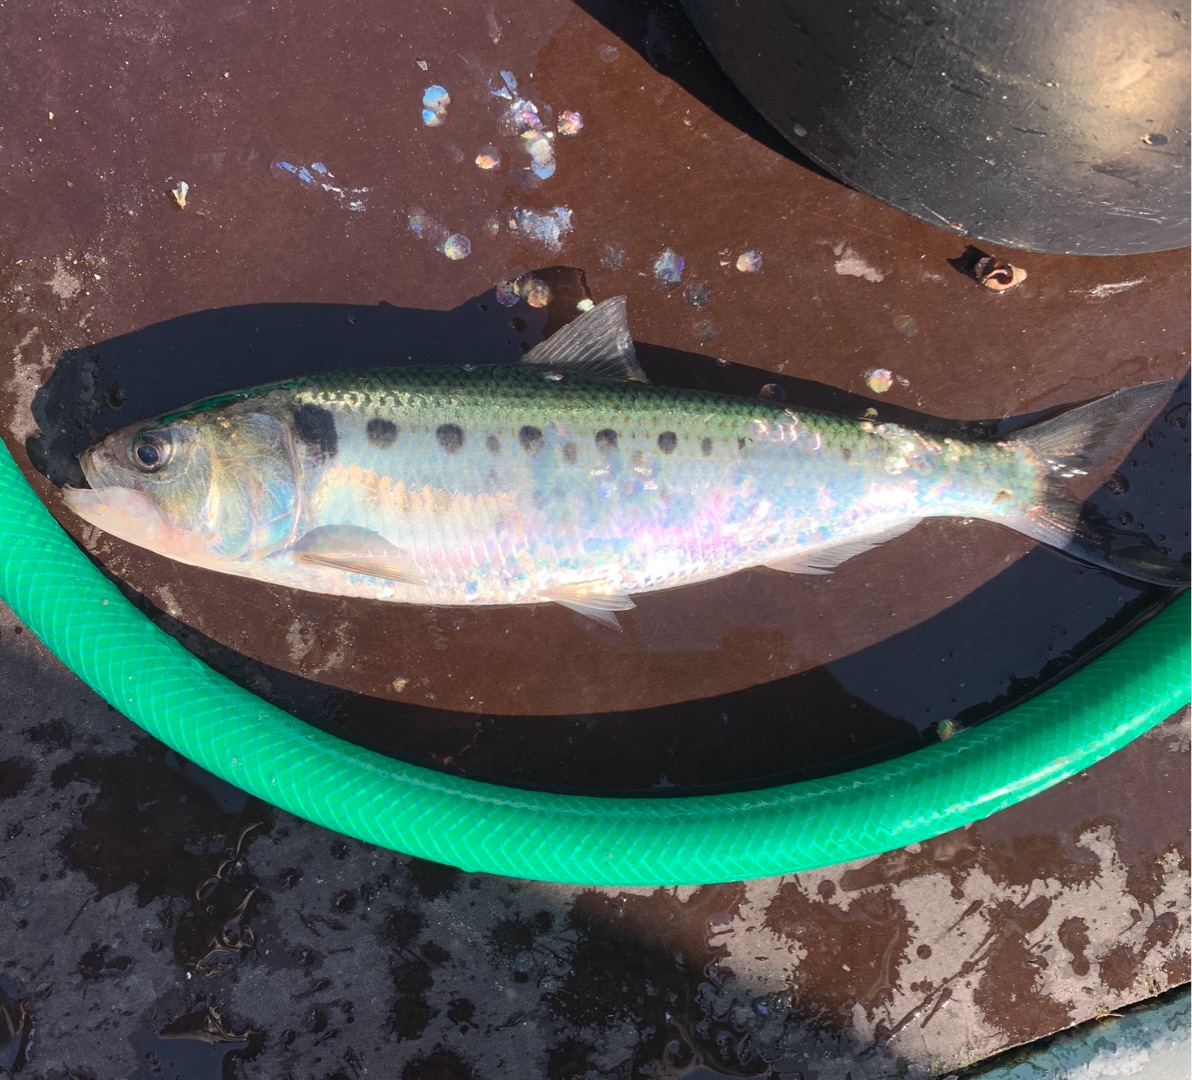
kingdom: Animalia
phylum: Chordata
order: Clupeiformes
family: Clupeidae
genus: Alosa
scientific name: Alosa fallax
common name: Stavsild
